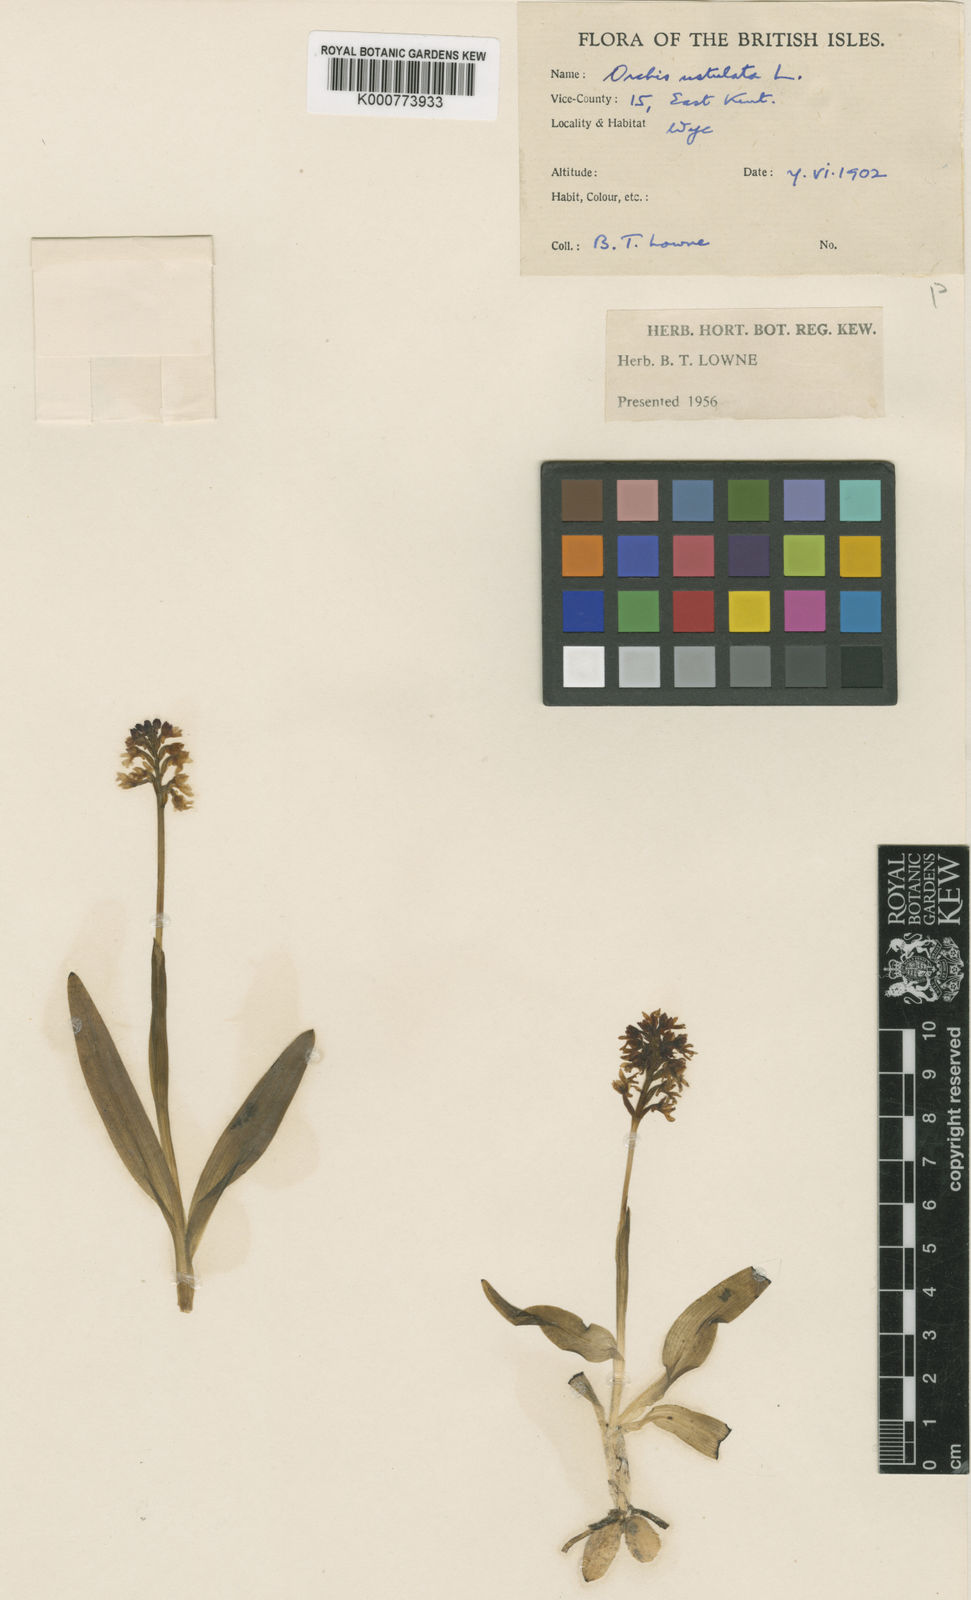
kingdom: Plantae
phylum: Tracheophyta
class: Liliopsida
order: Asparagales
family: Orchidaceae
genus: Neotinea
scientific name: Neotinea ustulata
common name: Burnt orchid
